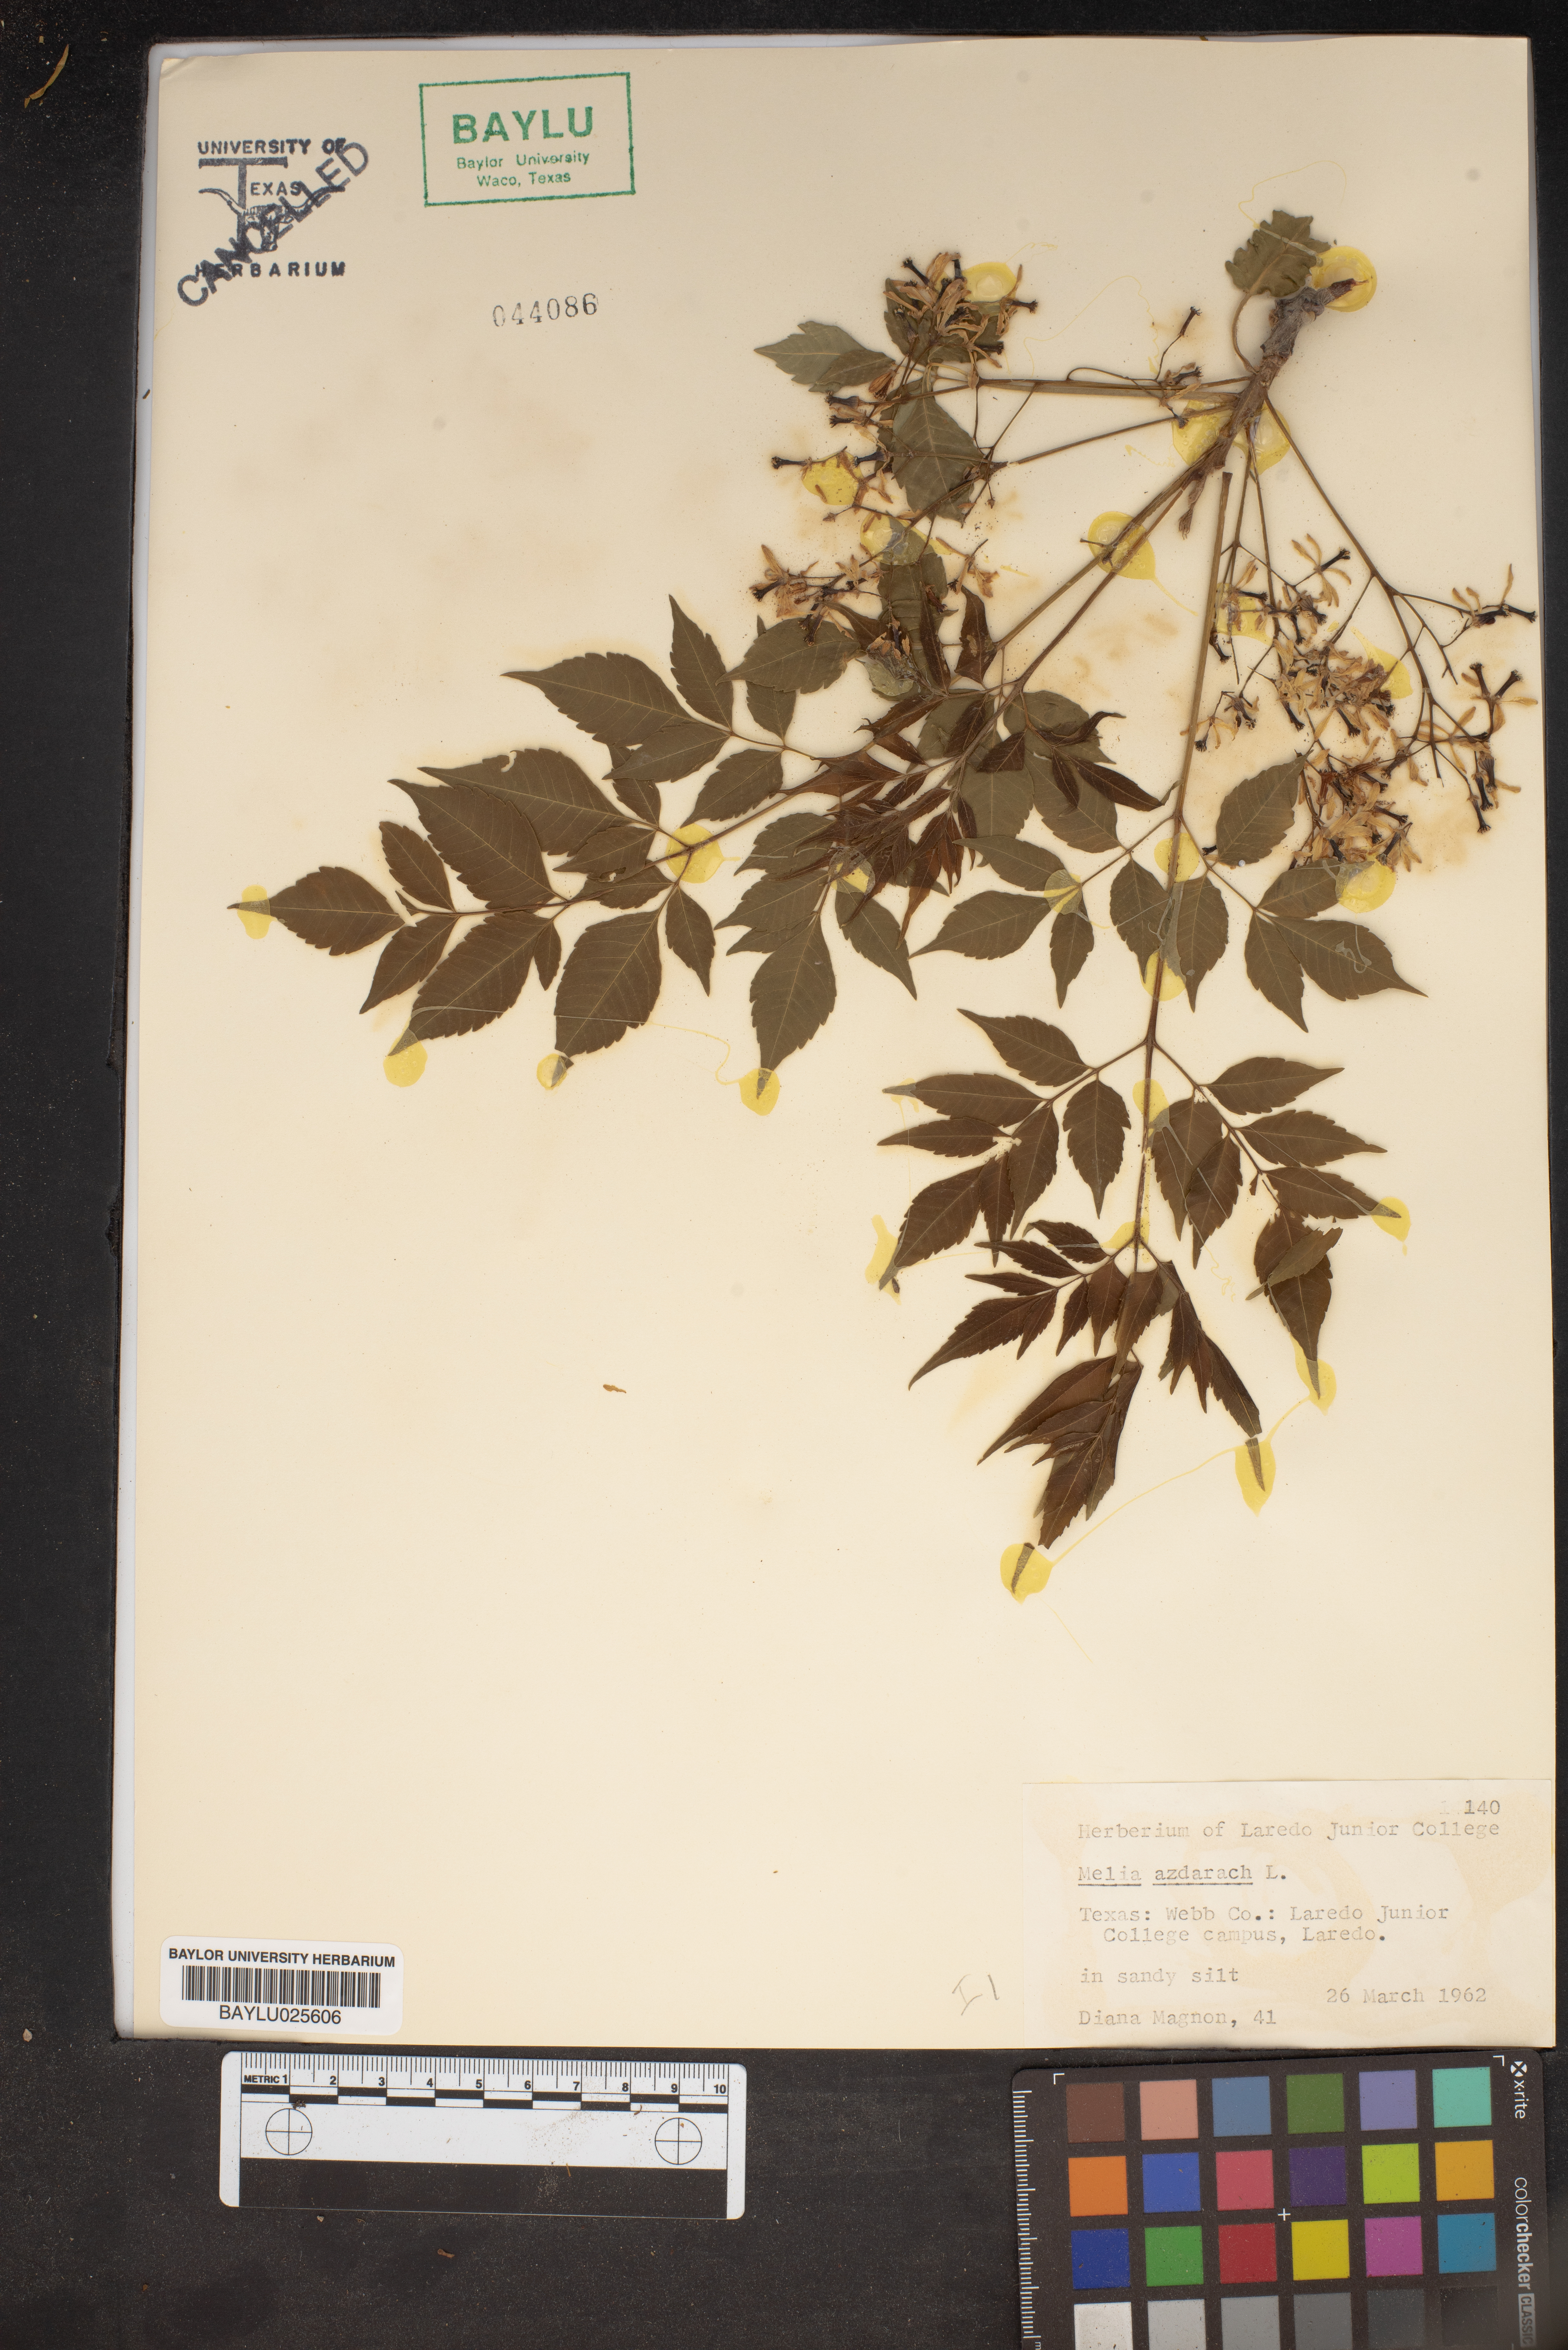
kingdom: Plantae
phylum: Tracheophyta
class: Magnoliopsida
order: Sapindales
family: Meliaceae
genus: Melia
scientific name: Melia azedarach
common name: Chinaberrytree
